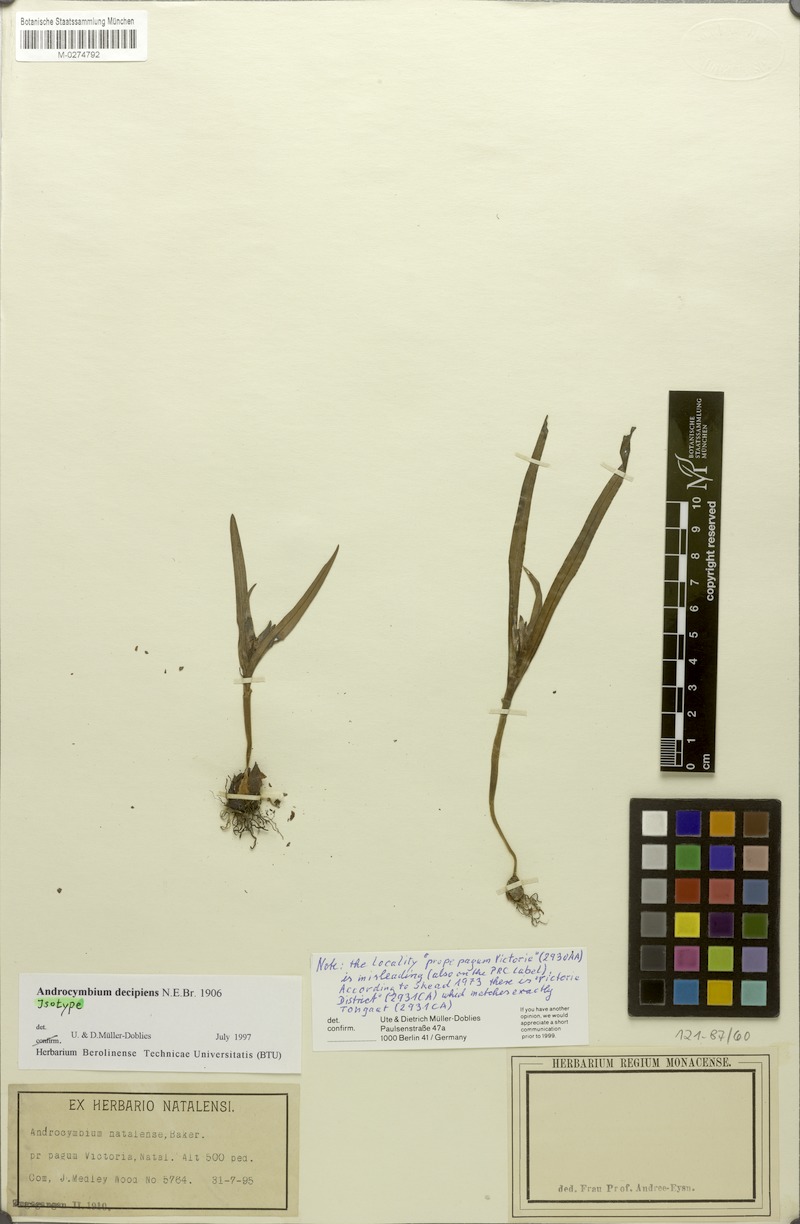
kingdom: Plantae
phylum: Tracheophyta
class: Liliopsida
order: Liliales
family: Colchicaceae
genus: Colchicum
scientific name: Colchicum decipiens
